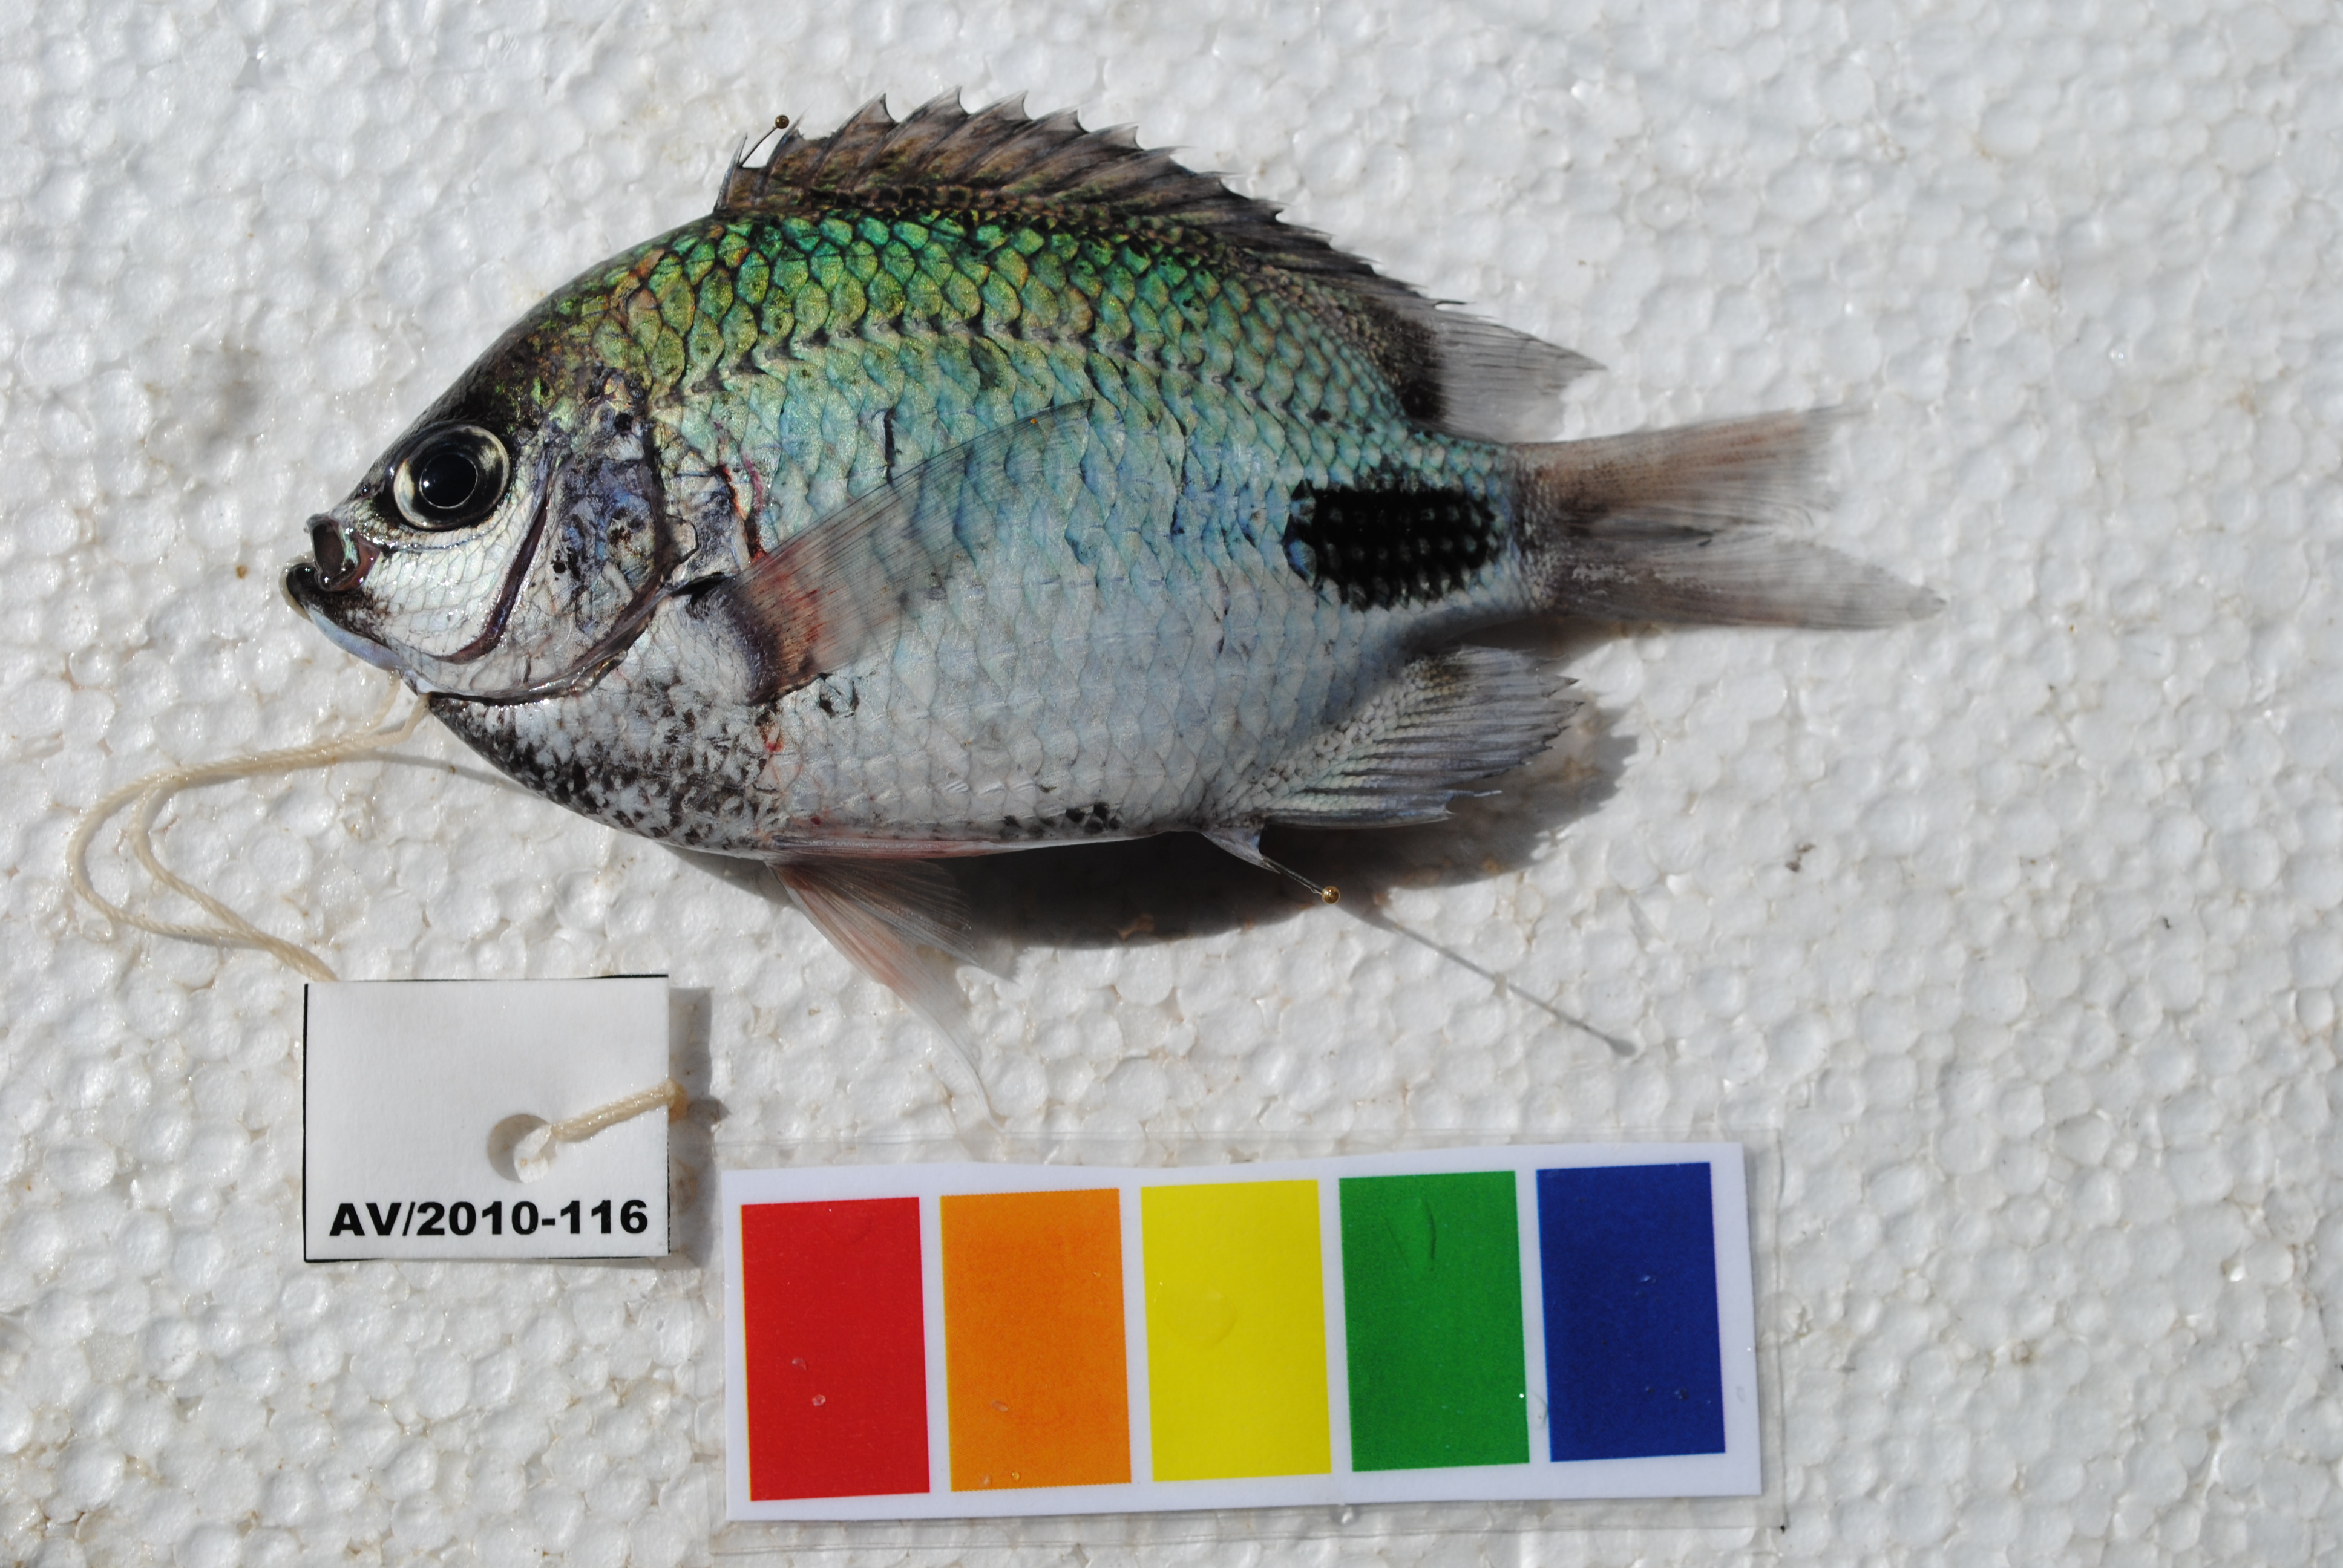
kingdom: Animalia
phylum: Chordata
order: Perciformes
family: Pomacentridae
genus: Abudefduf
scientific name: Abudefduf sparoides
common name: False-eye sergeant
